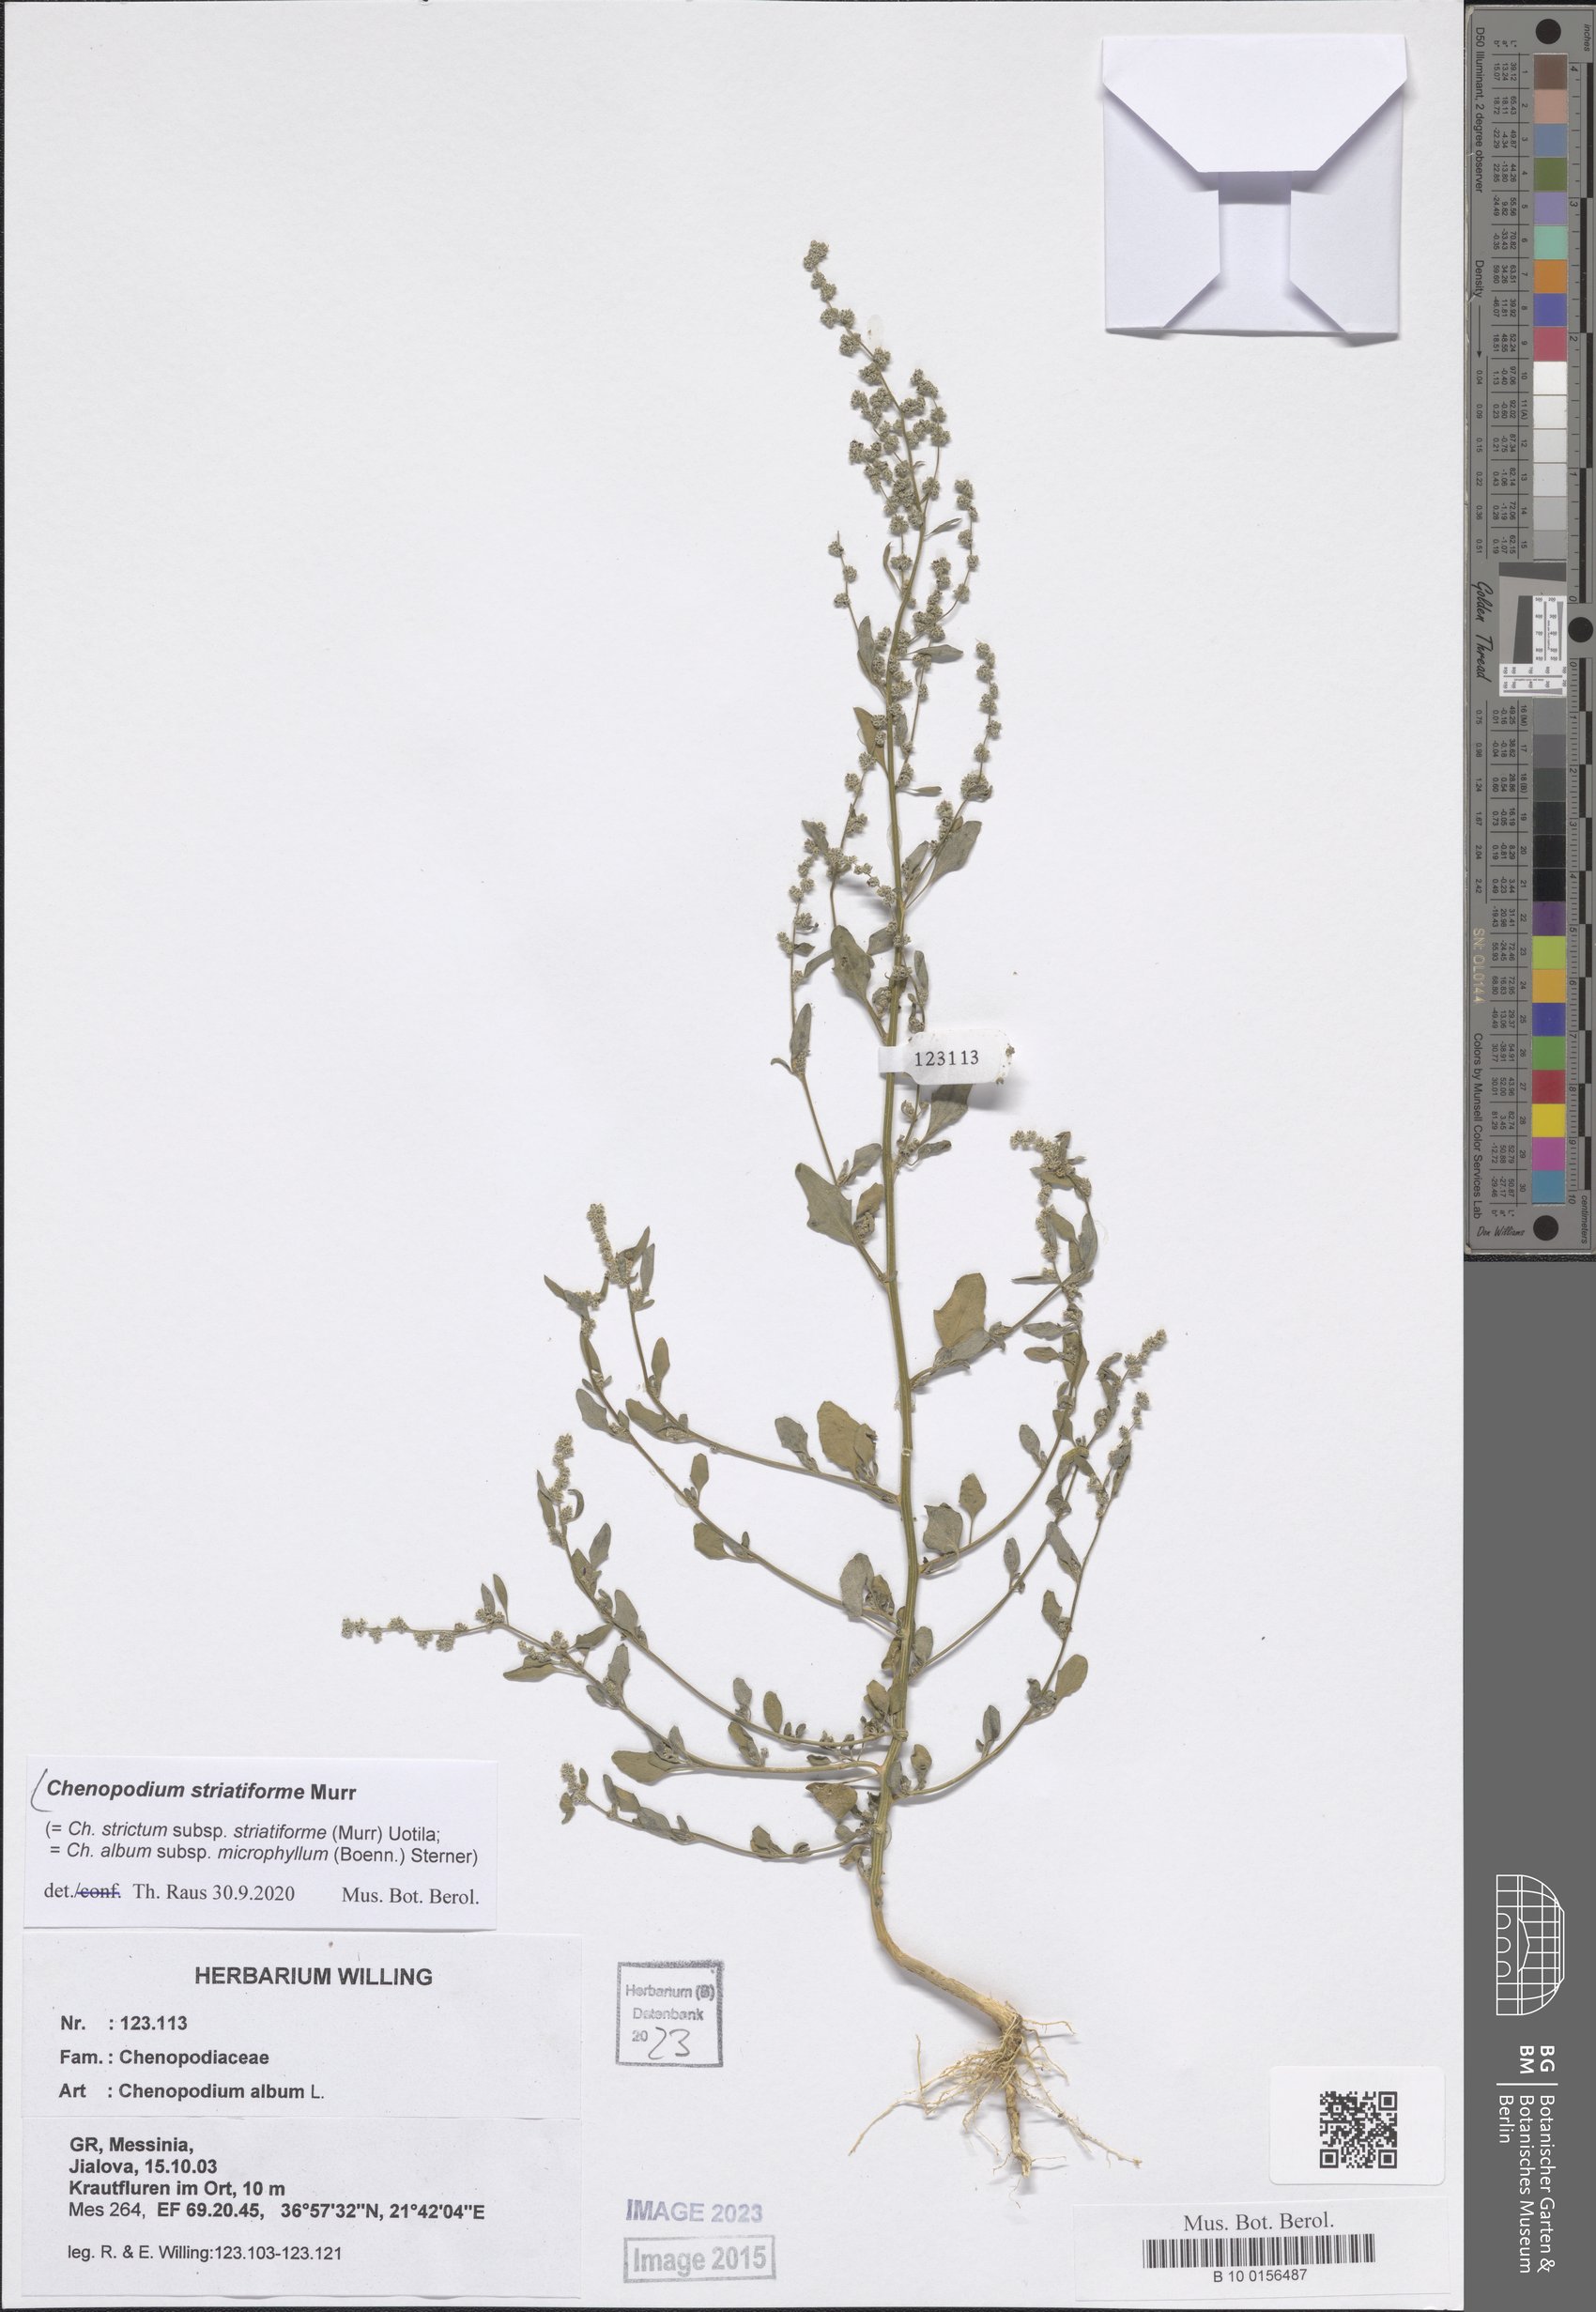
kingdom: Plantae
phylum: Tracheophyta
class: Magnoliopsida
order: Caryophyllales
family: Amaranthaceae
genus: Chenopodium
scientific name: Chenopodium striatiforme
